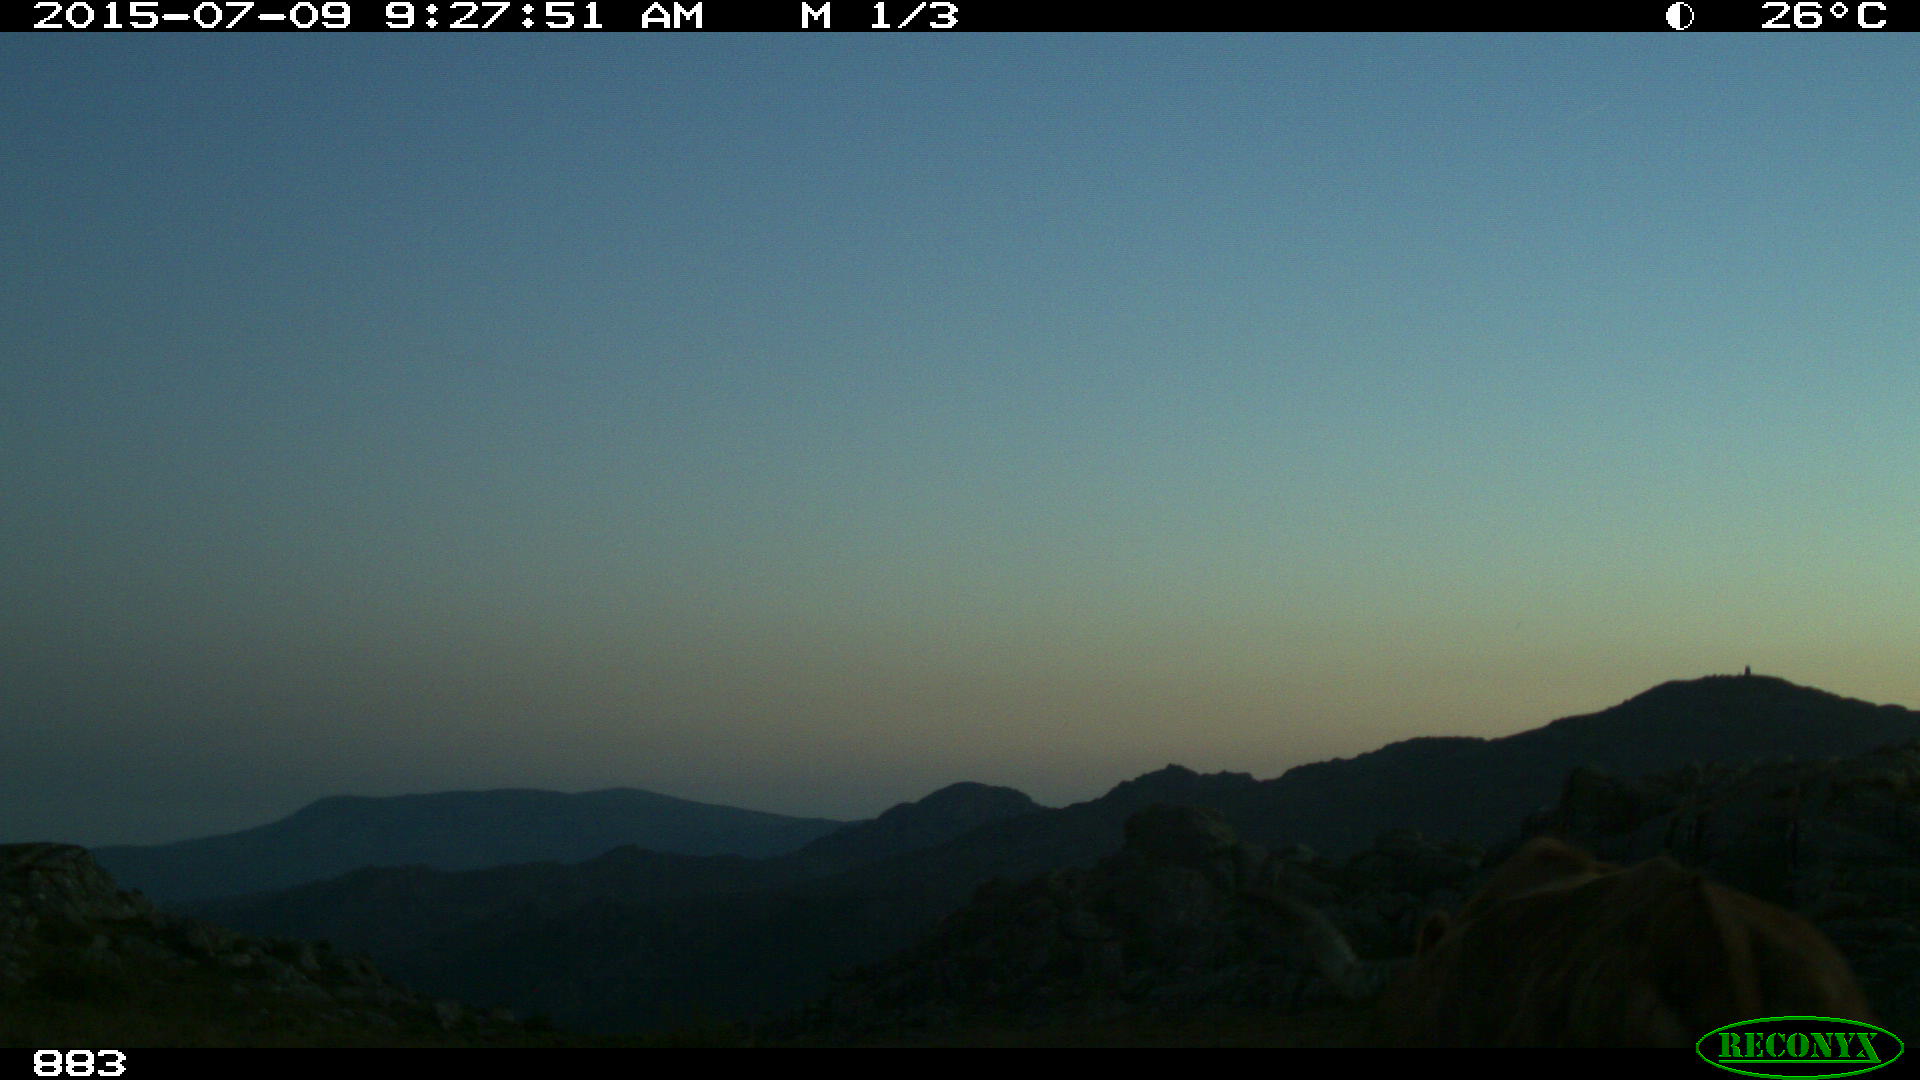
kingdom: Animalia
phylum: Chordata
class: Mammalia
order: Artiodactyla
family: Bovidae
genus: Bos
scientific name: Bos taurus
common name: Domesticated cattle
